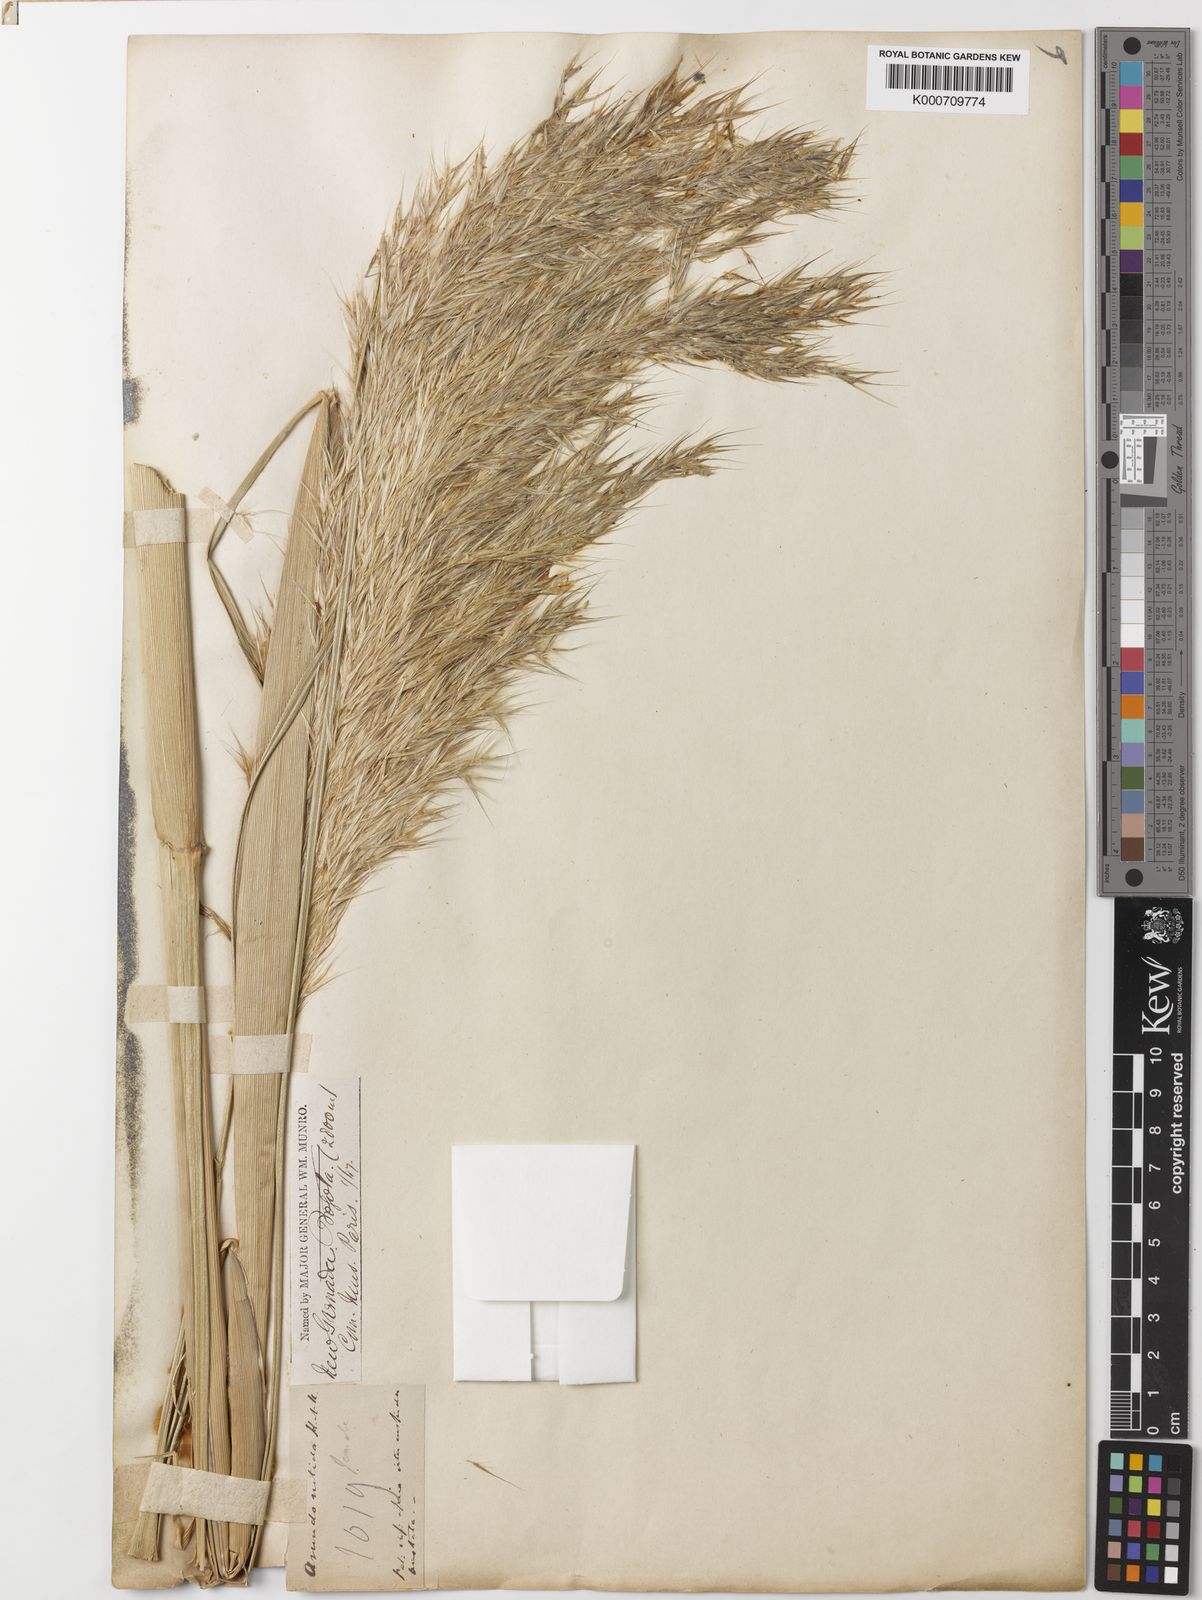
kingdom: Plantae
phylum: Tracheophyta
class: Liliopsida
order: Poales
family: Poaceae
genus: Cortaderia
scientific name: Cortaderia nitida
